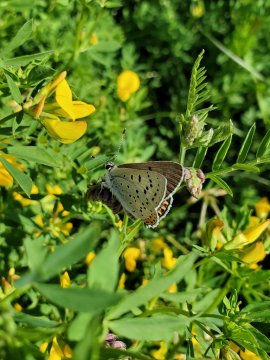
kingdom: Animalia
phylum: Arthropoda
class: Insecta
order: Lepidoptera
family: Lycaenidae
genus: Tharsalea
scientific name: Tharsalea dione
